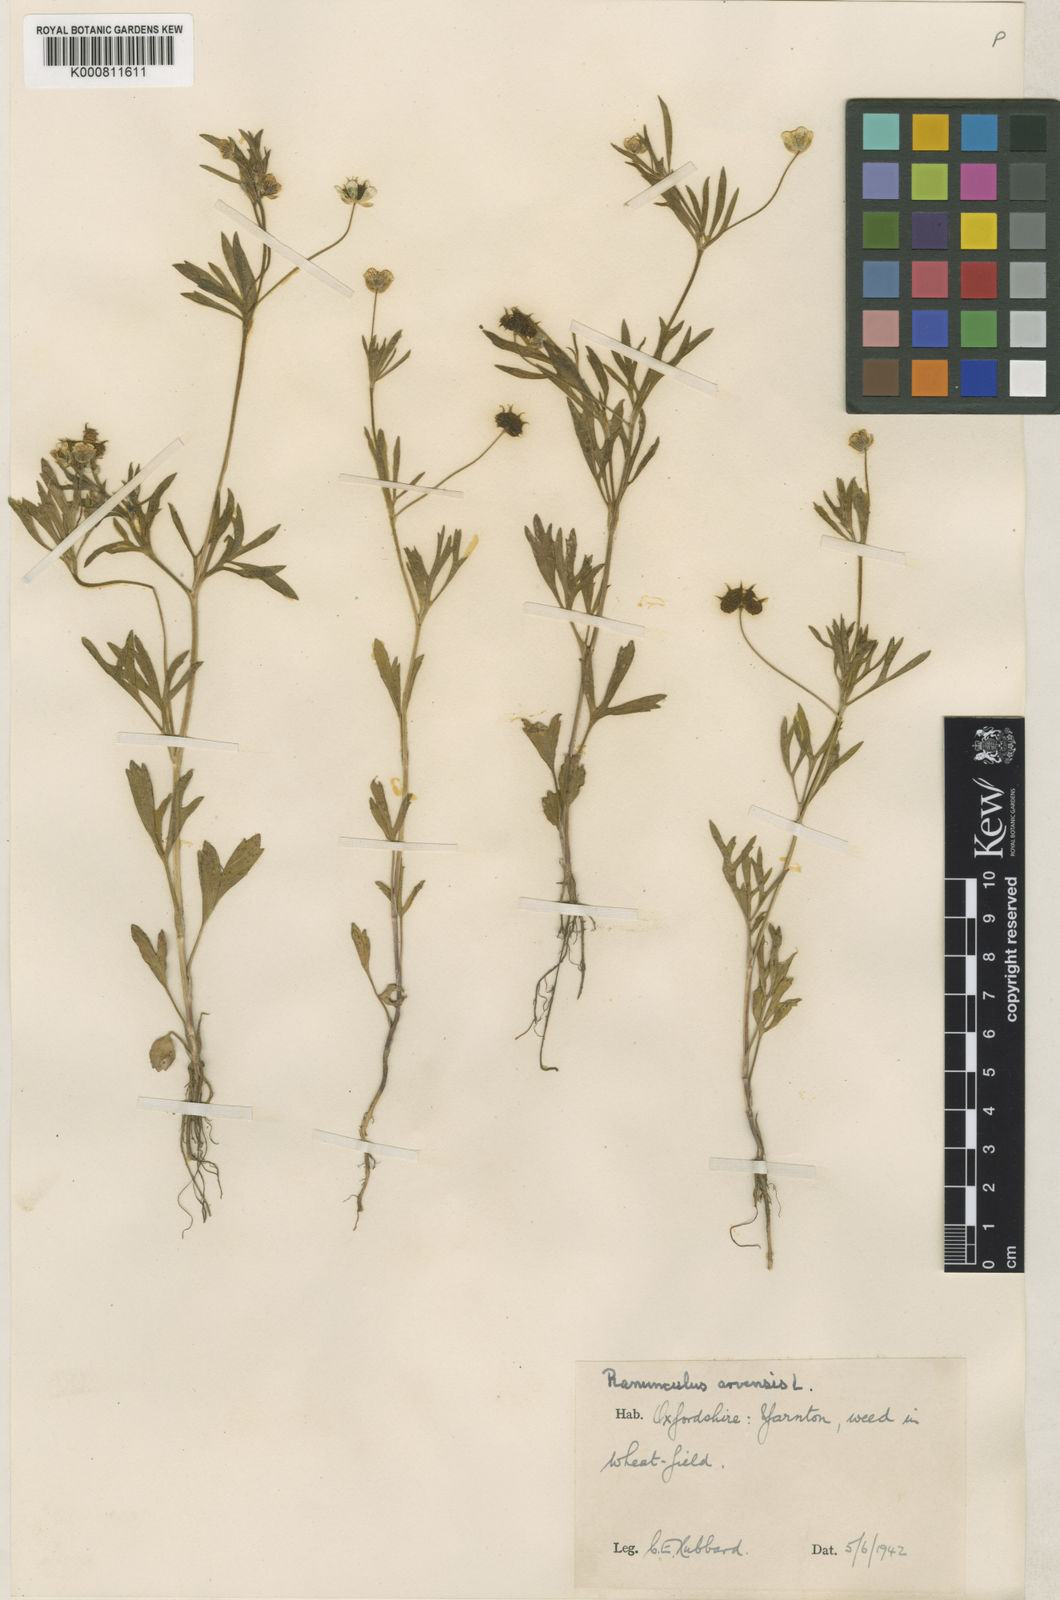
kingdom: Plantae
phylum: Tracheophyta
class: Magnoliopsida
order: Ranunculales
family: Ranunculaceae
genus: Ranunculus
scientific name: Ranunculus arvensis
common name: Corn buttercup
